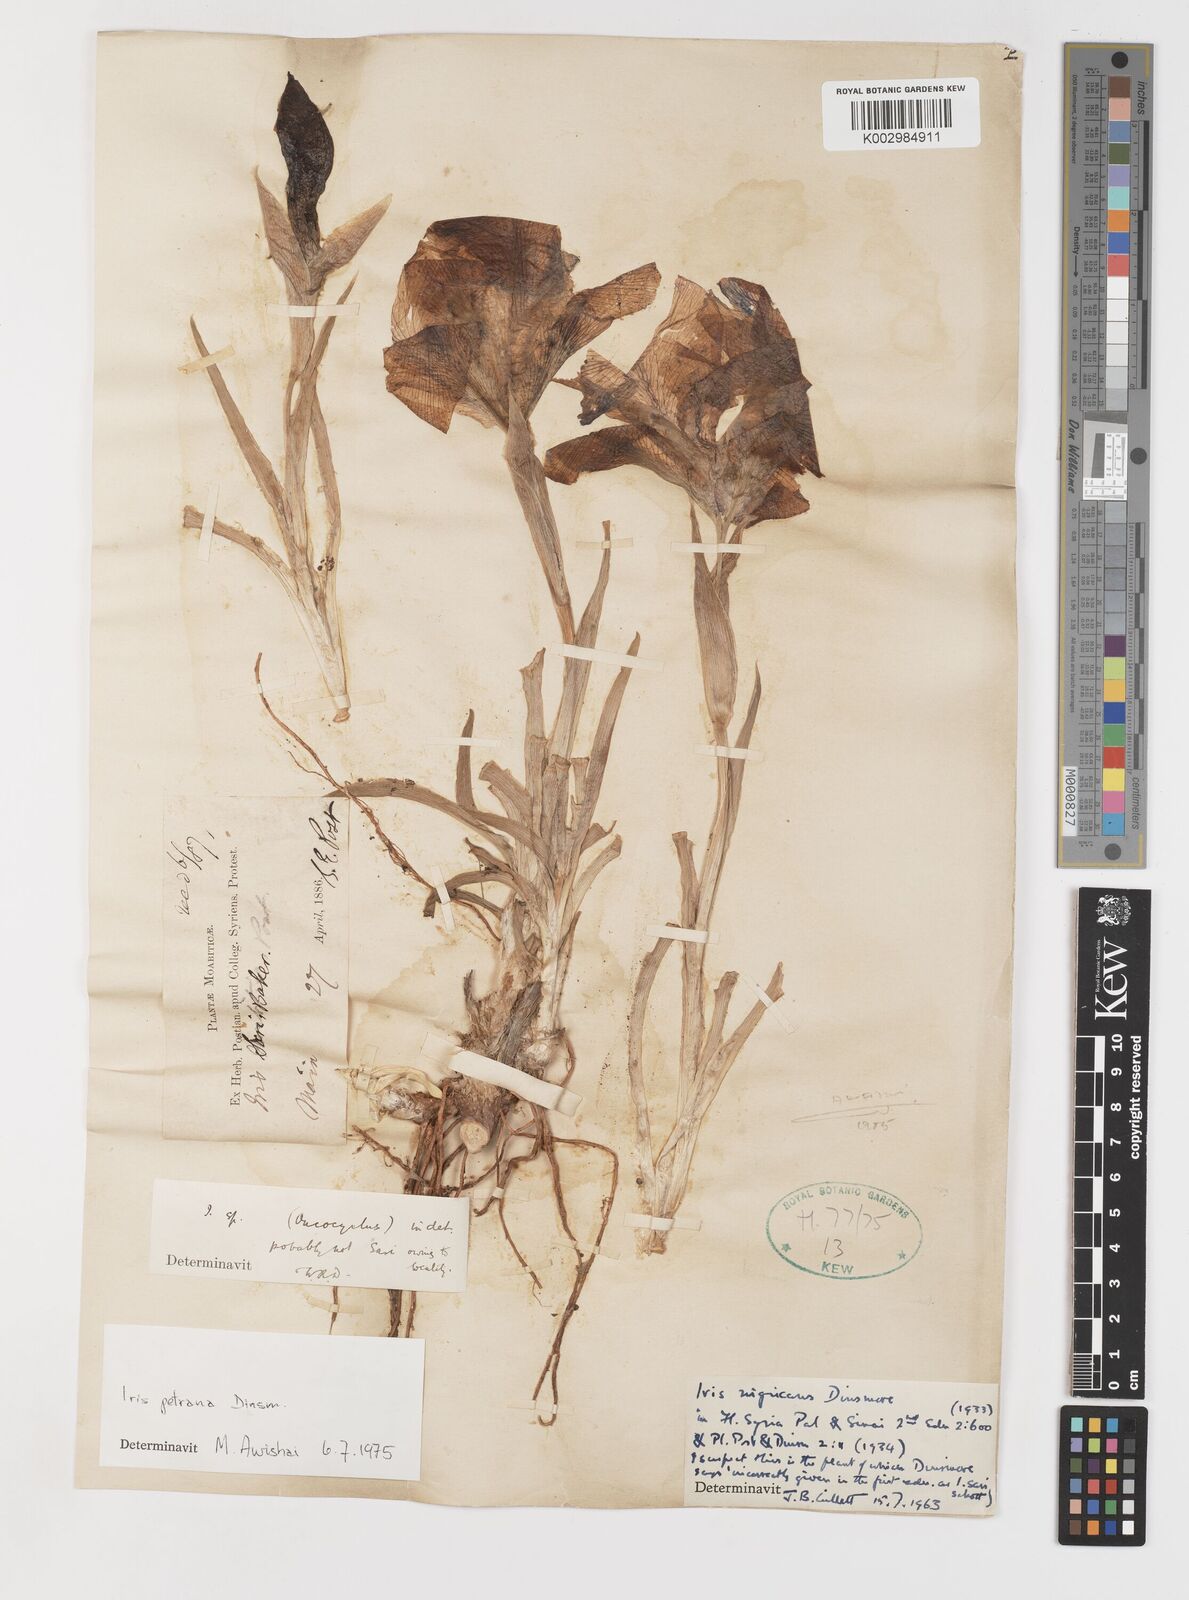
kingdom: Plantae
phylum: Tracheophyta
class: Liliopsida
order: Asparagales
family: Iridaceae
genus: Iris
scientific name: Iris petrana
